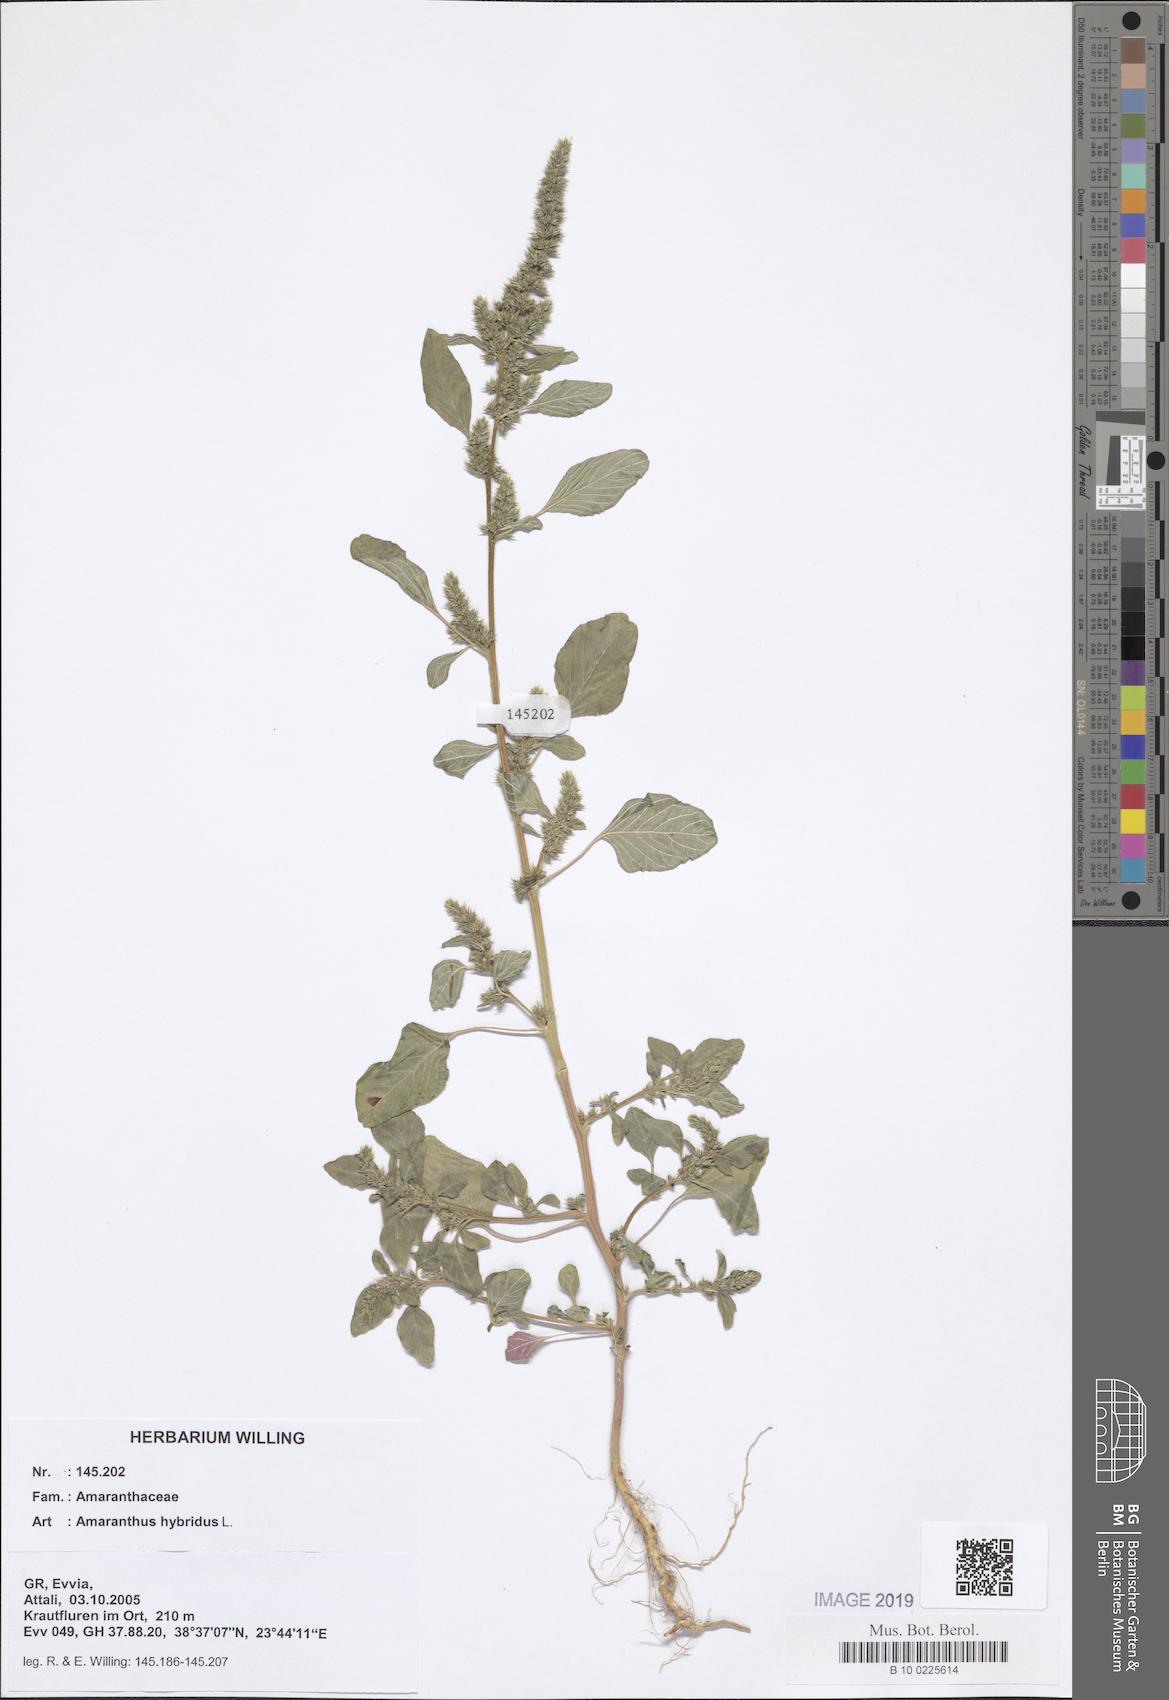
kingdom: Plantae
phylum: Tracheophyta
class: Magnoliopsida
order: Caryophyllales
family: Amaranthaceae
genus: Amaranthus
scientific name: Amaranthus hybridus
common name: Green amaranth
